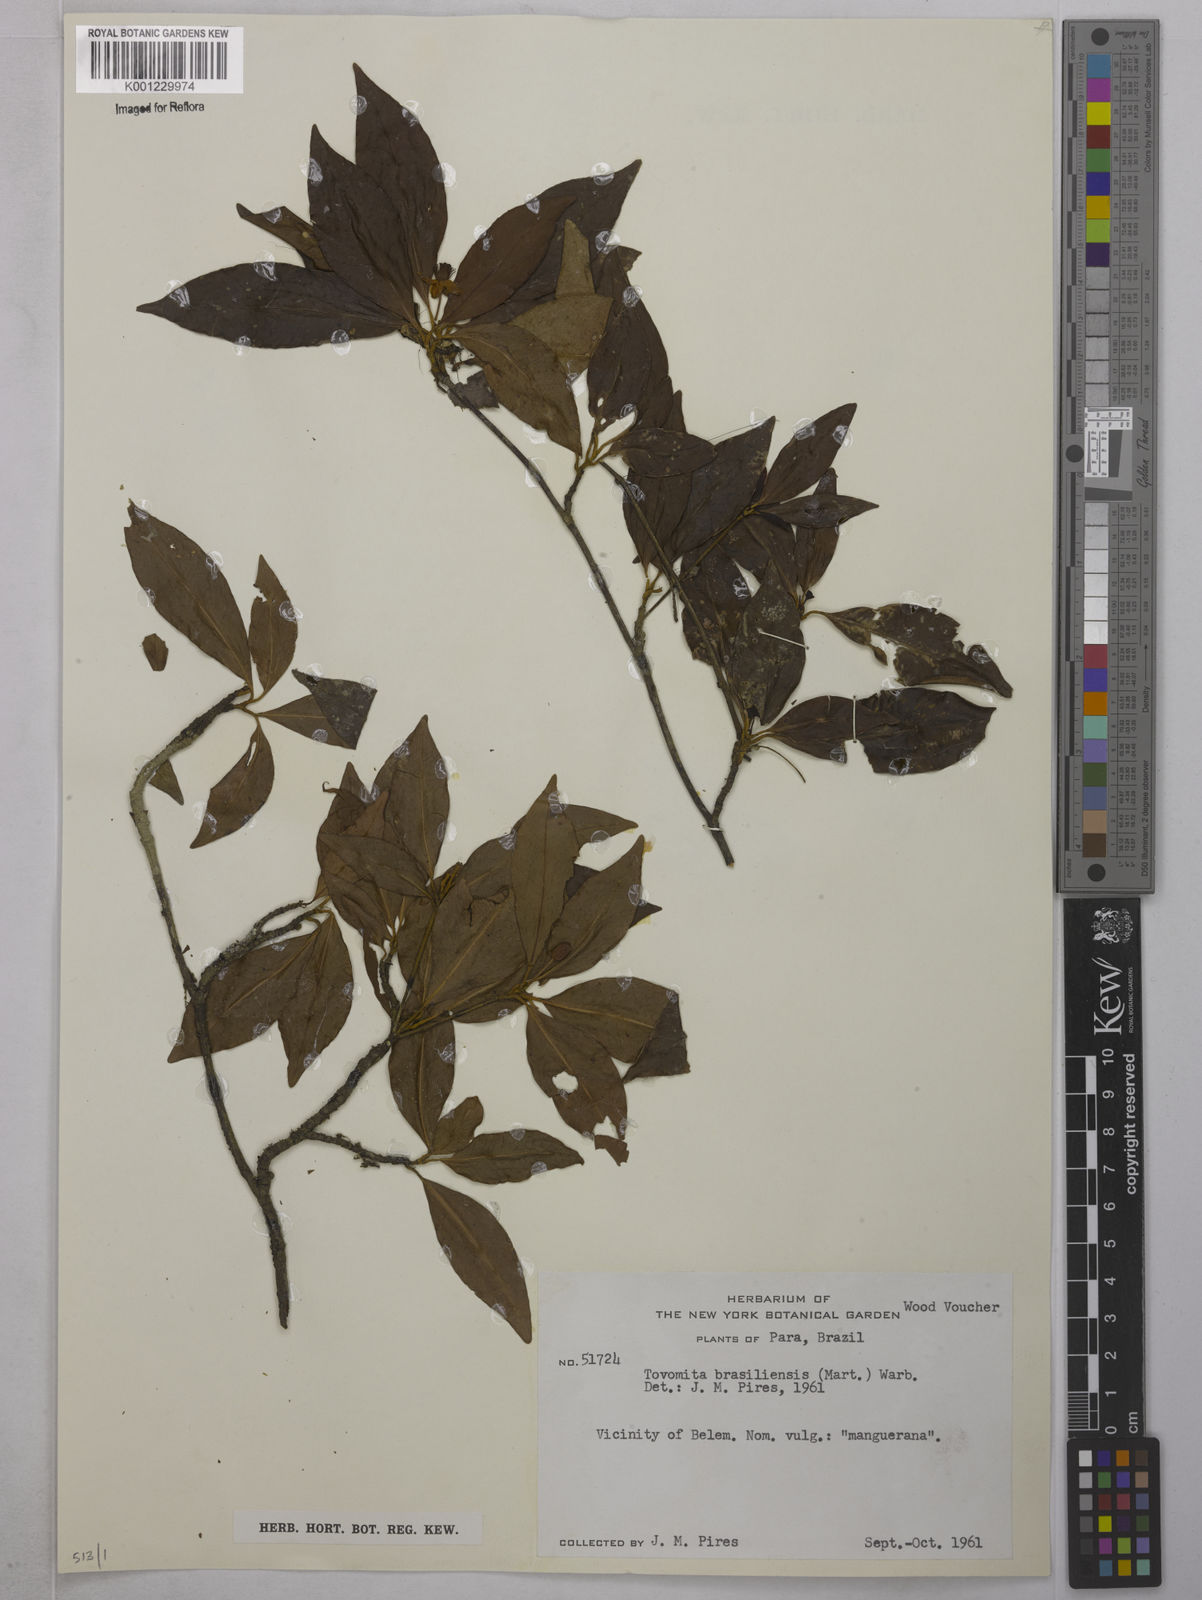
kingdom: Plantae
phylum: Tracheophyta
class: Magnoliopsida
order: Malpighiales
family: Clusiaceae
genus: Tovomita
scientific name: Tovomita
